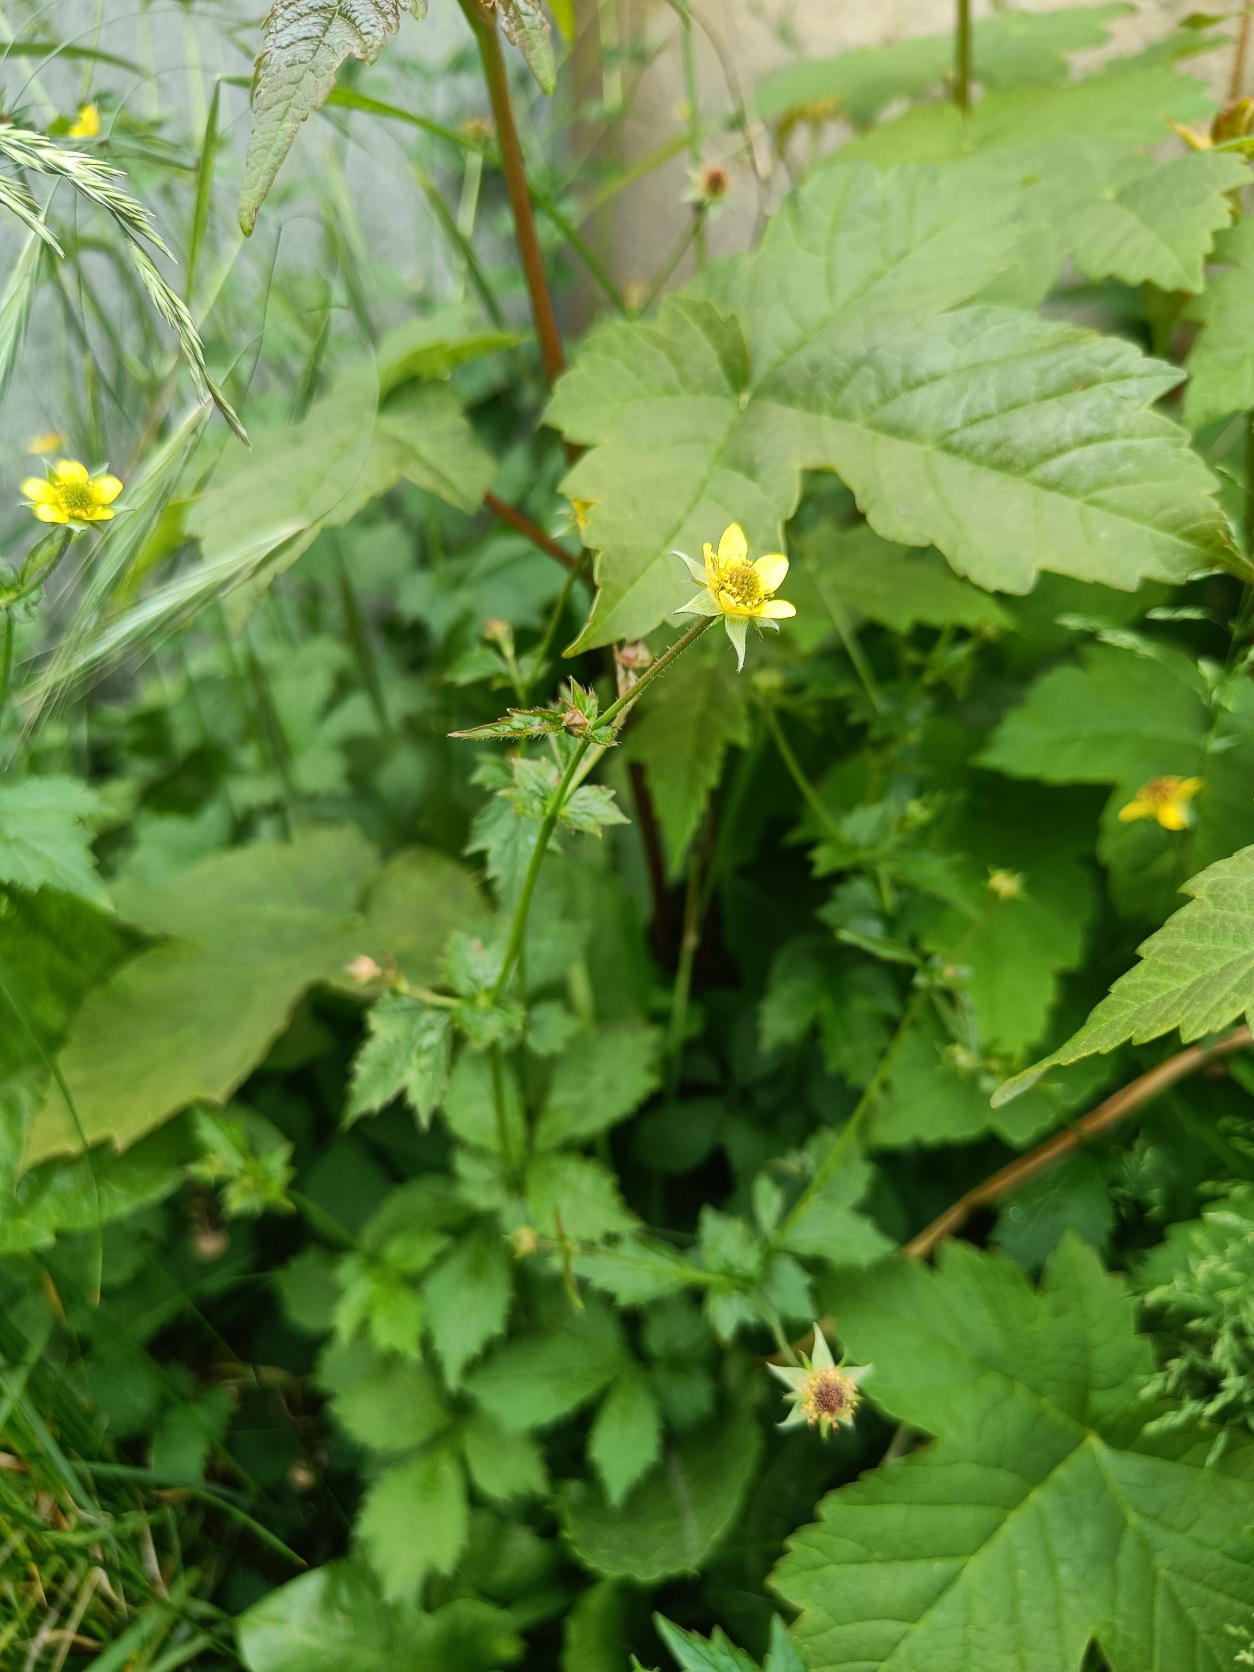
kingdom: Plantae
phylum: Tracheophyta
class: Magnoliopsida
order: Rosales
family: Rosaceae
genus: Geum
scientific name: Geum urbanum
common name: Feber-nellikerod
